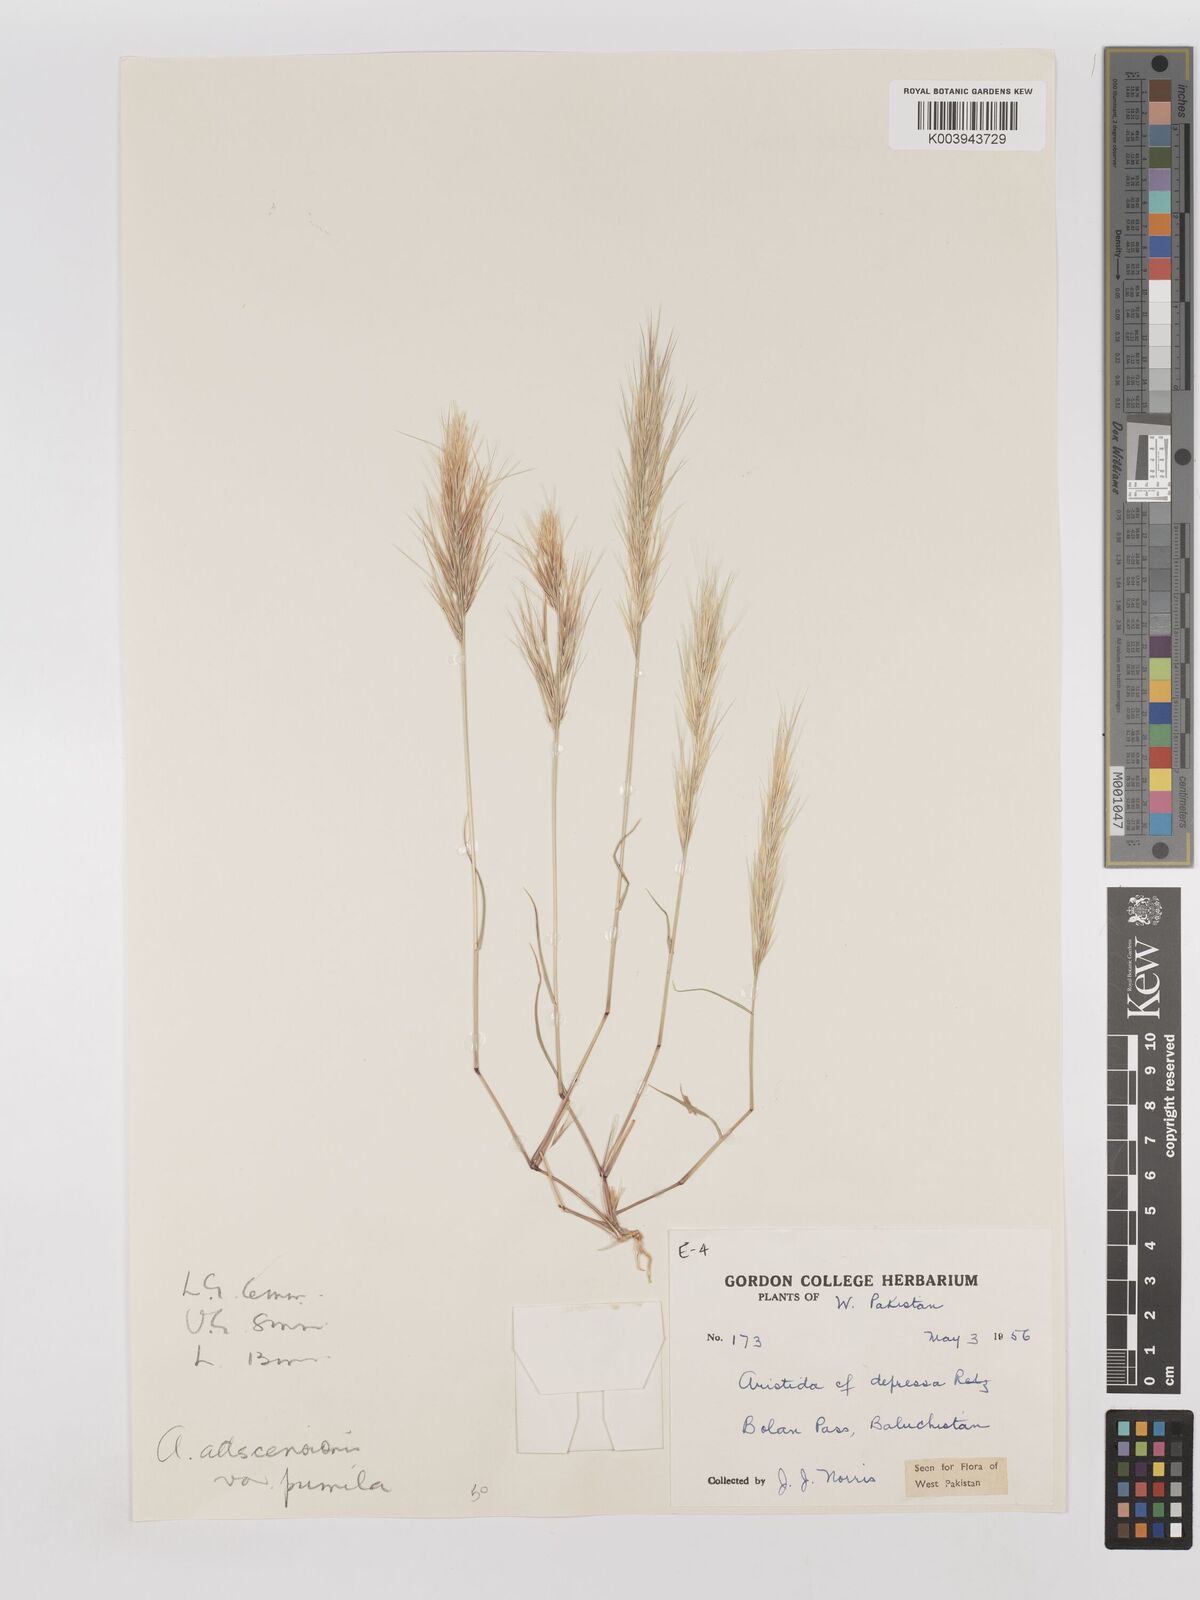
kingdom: Plantae
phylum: Tracheophyta
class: Liliopsida
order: Poales
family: Poaceae
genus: Aristida
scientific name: Aristida adscensionis
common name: Sixweeks threeawn
